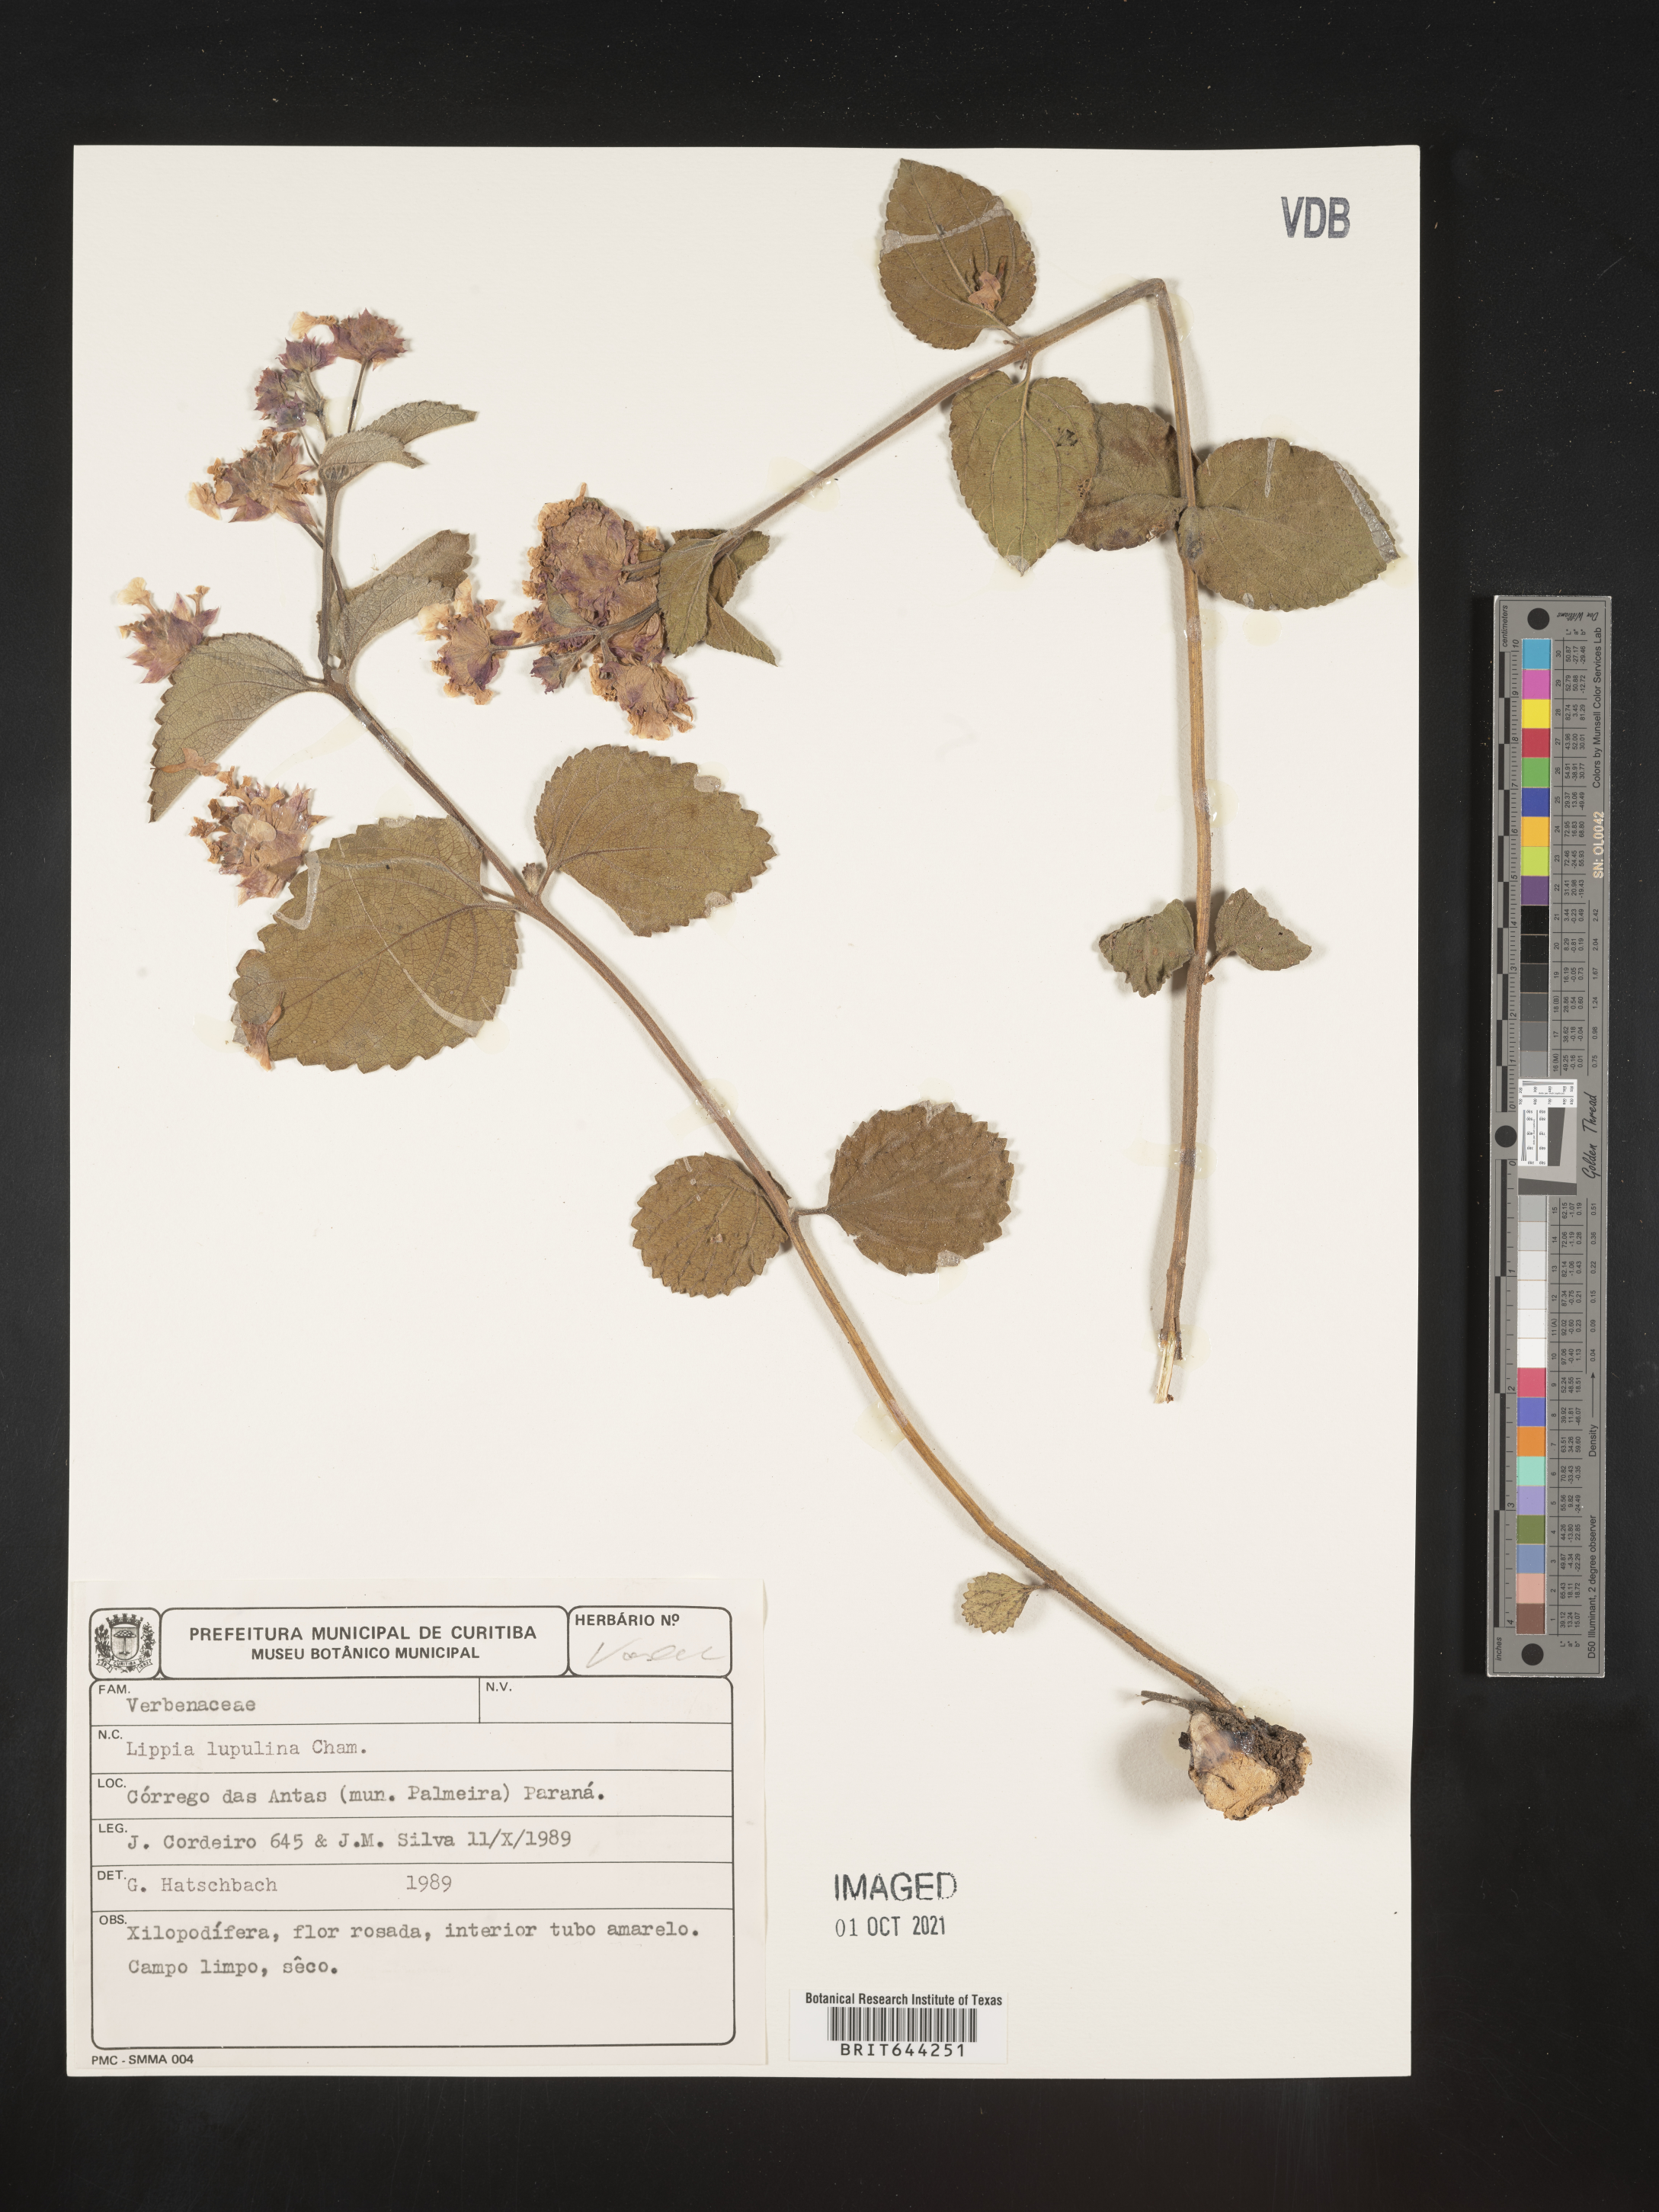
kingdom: Plantae
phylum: Tracheophyta
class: Magnoliopsida
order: Lamiales
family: Verbenaceae
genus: Lippia
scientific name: Lippia
